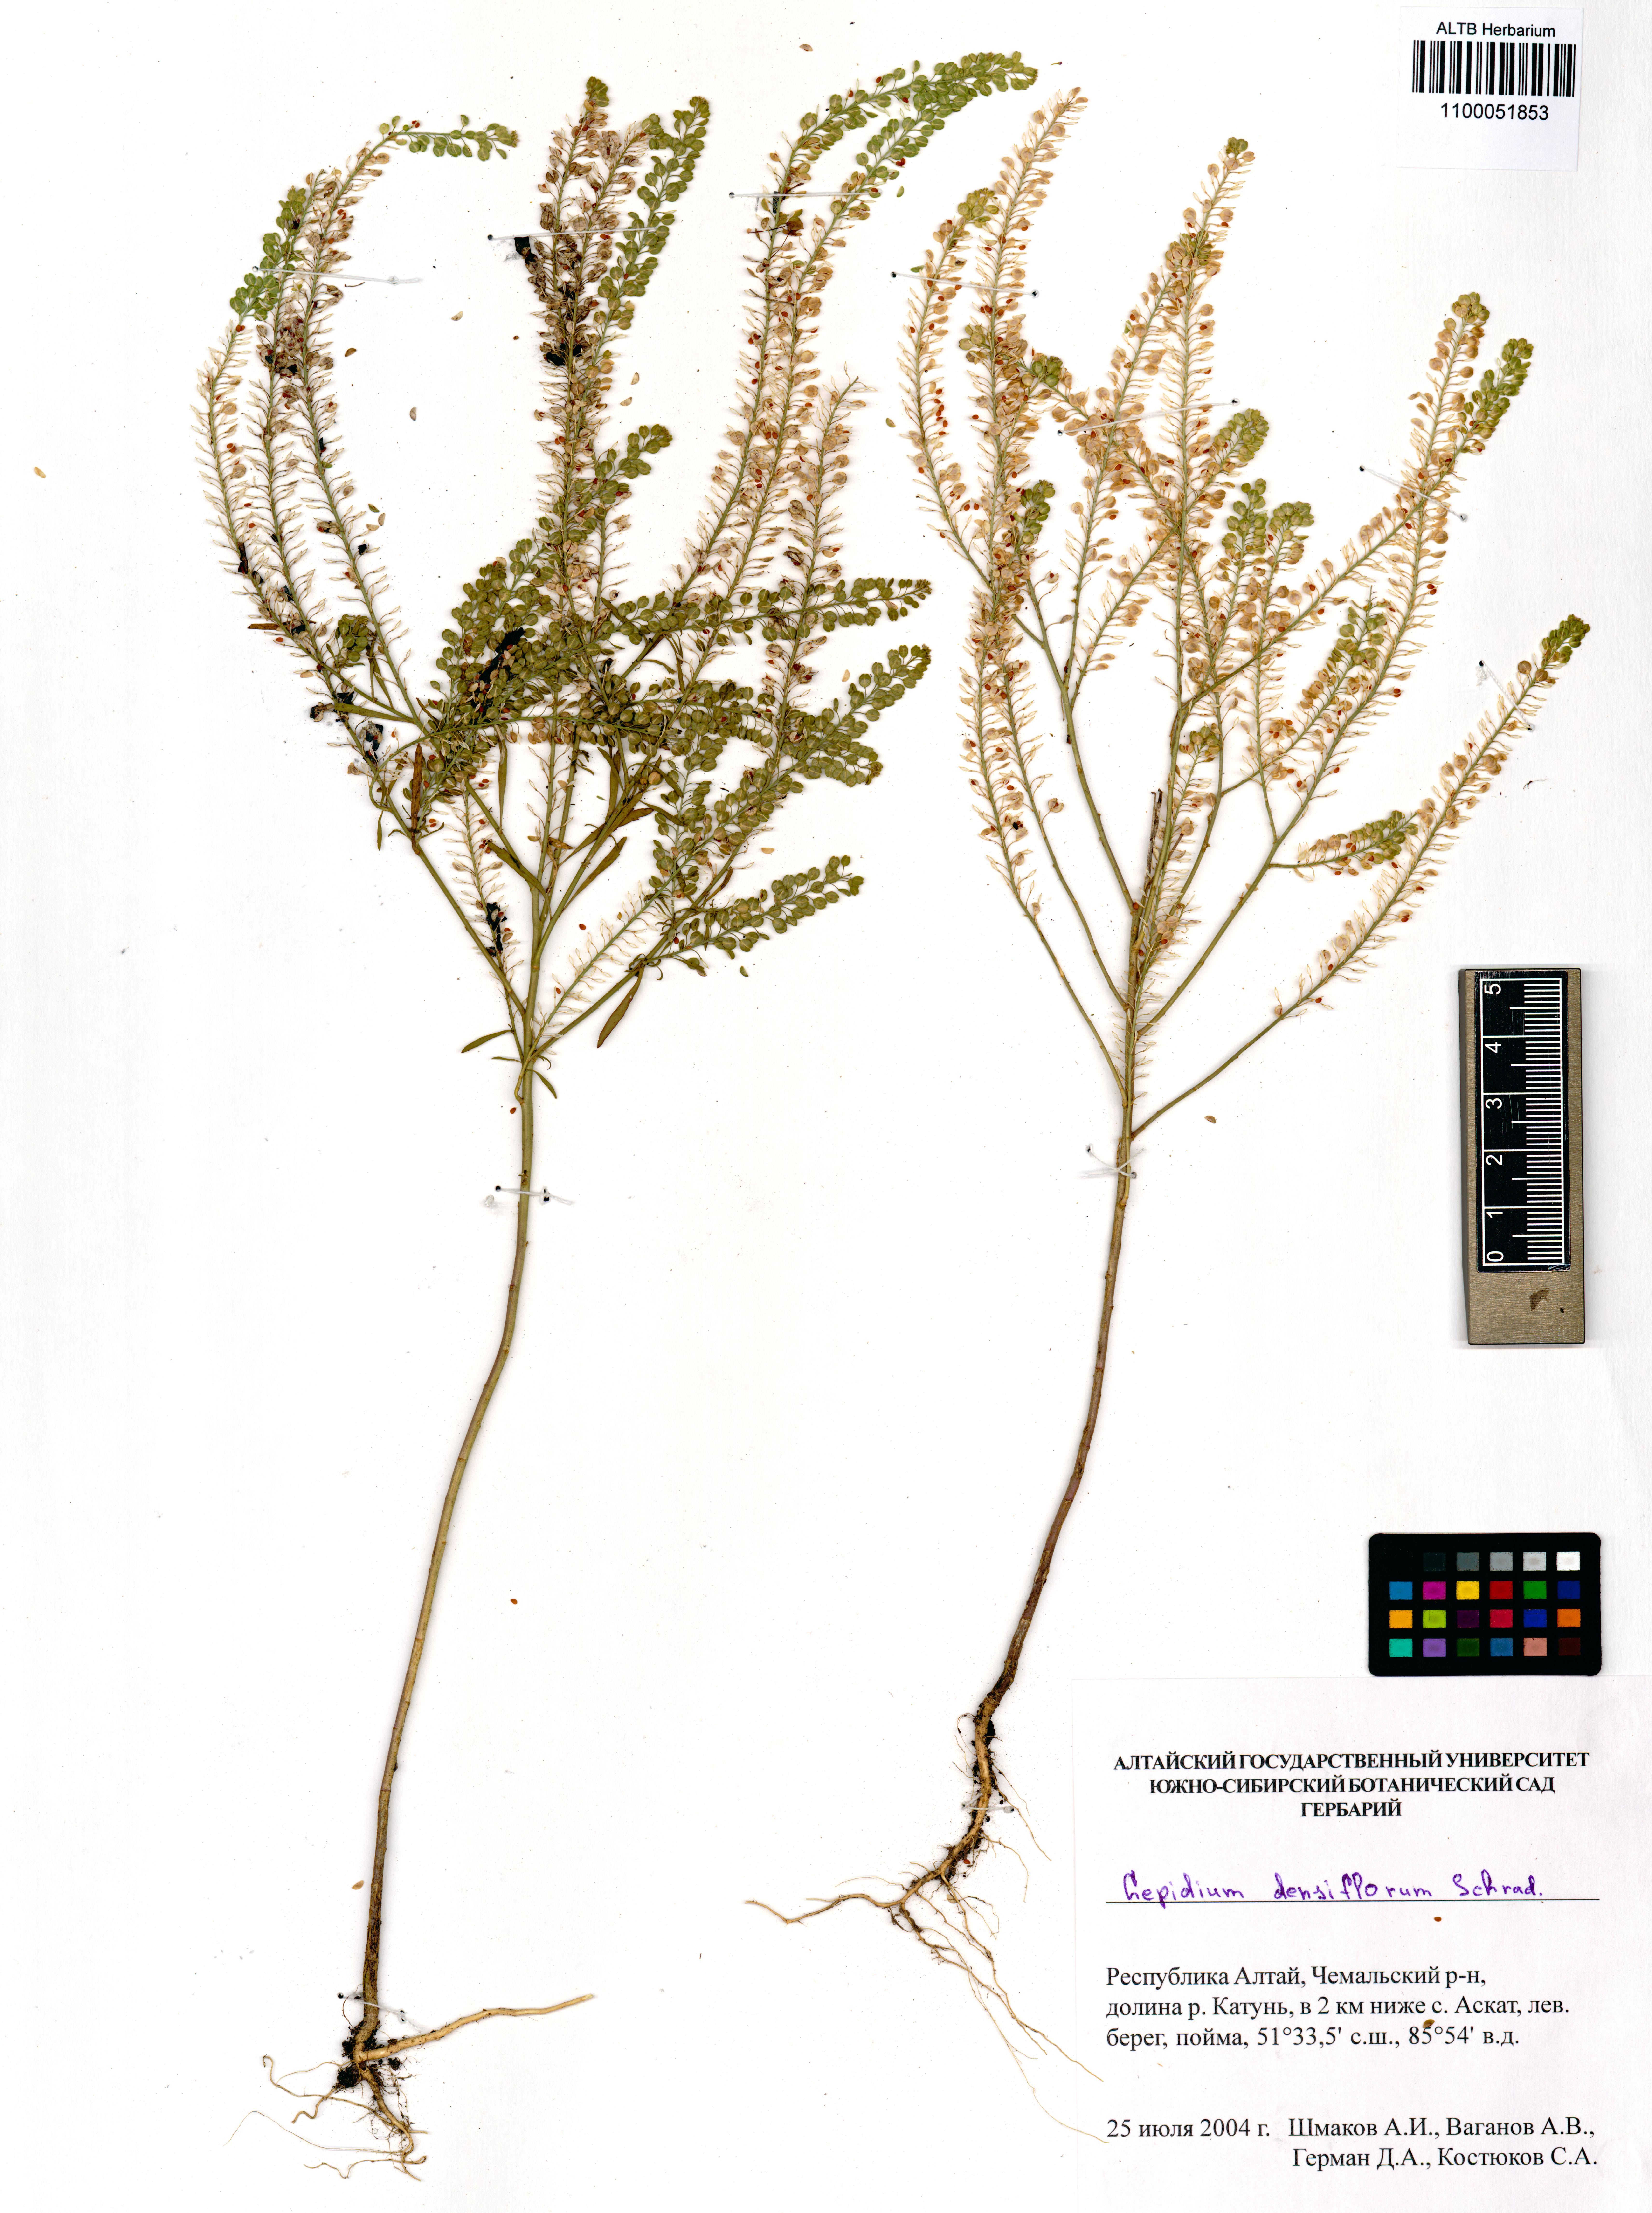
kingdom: Plantae
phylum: Tracheophyta
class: Magnoliopsida
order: Brassicales
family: Brassicaceae
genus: Lepidium
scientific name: Lepidium densiflorum
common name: Miner's pepperwort
